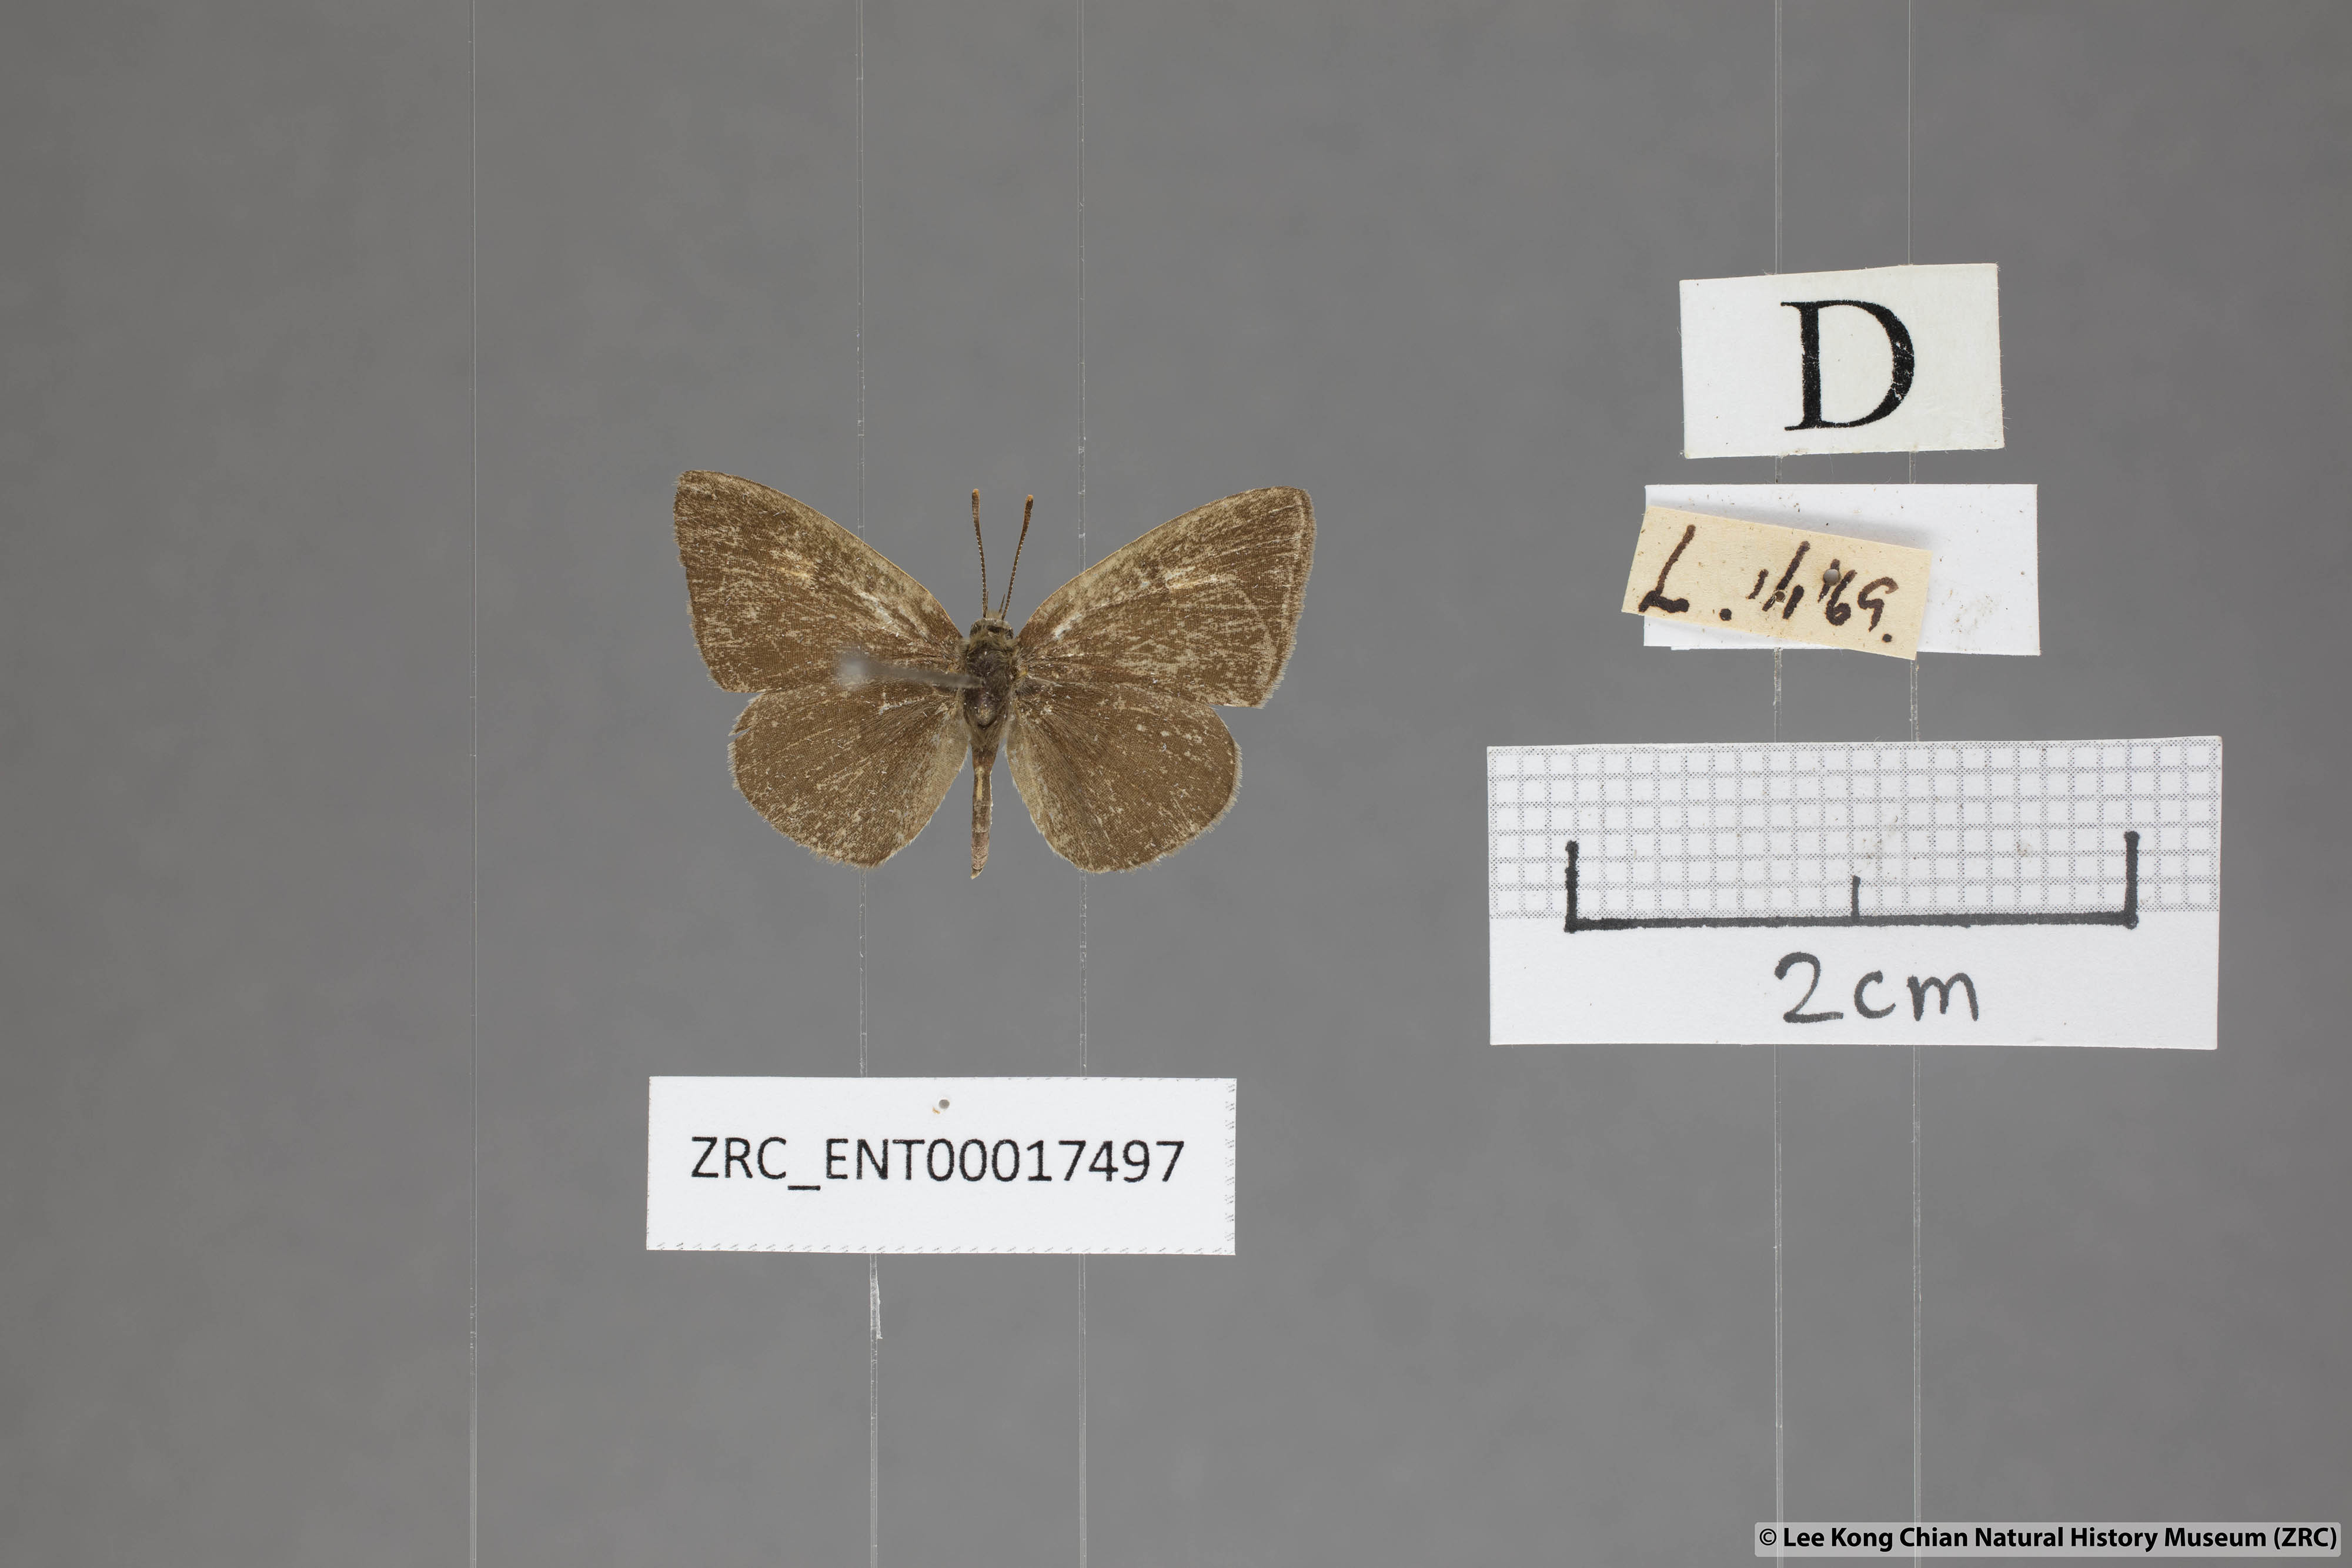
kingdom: Animalia
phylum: Arthropoda
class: Insecta
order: Lepidoptera
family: Lycaenidae
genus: Spalgis
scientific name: Spalgis epeus
